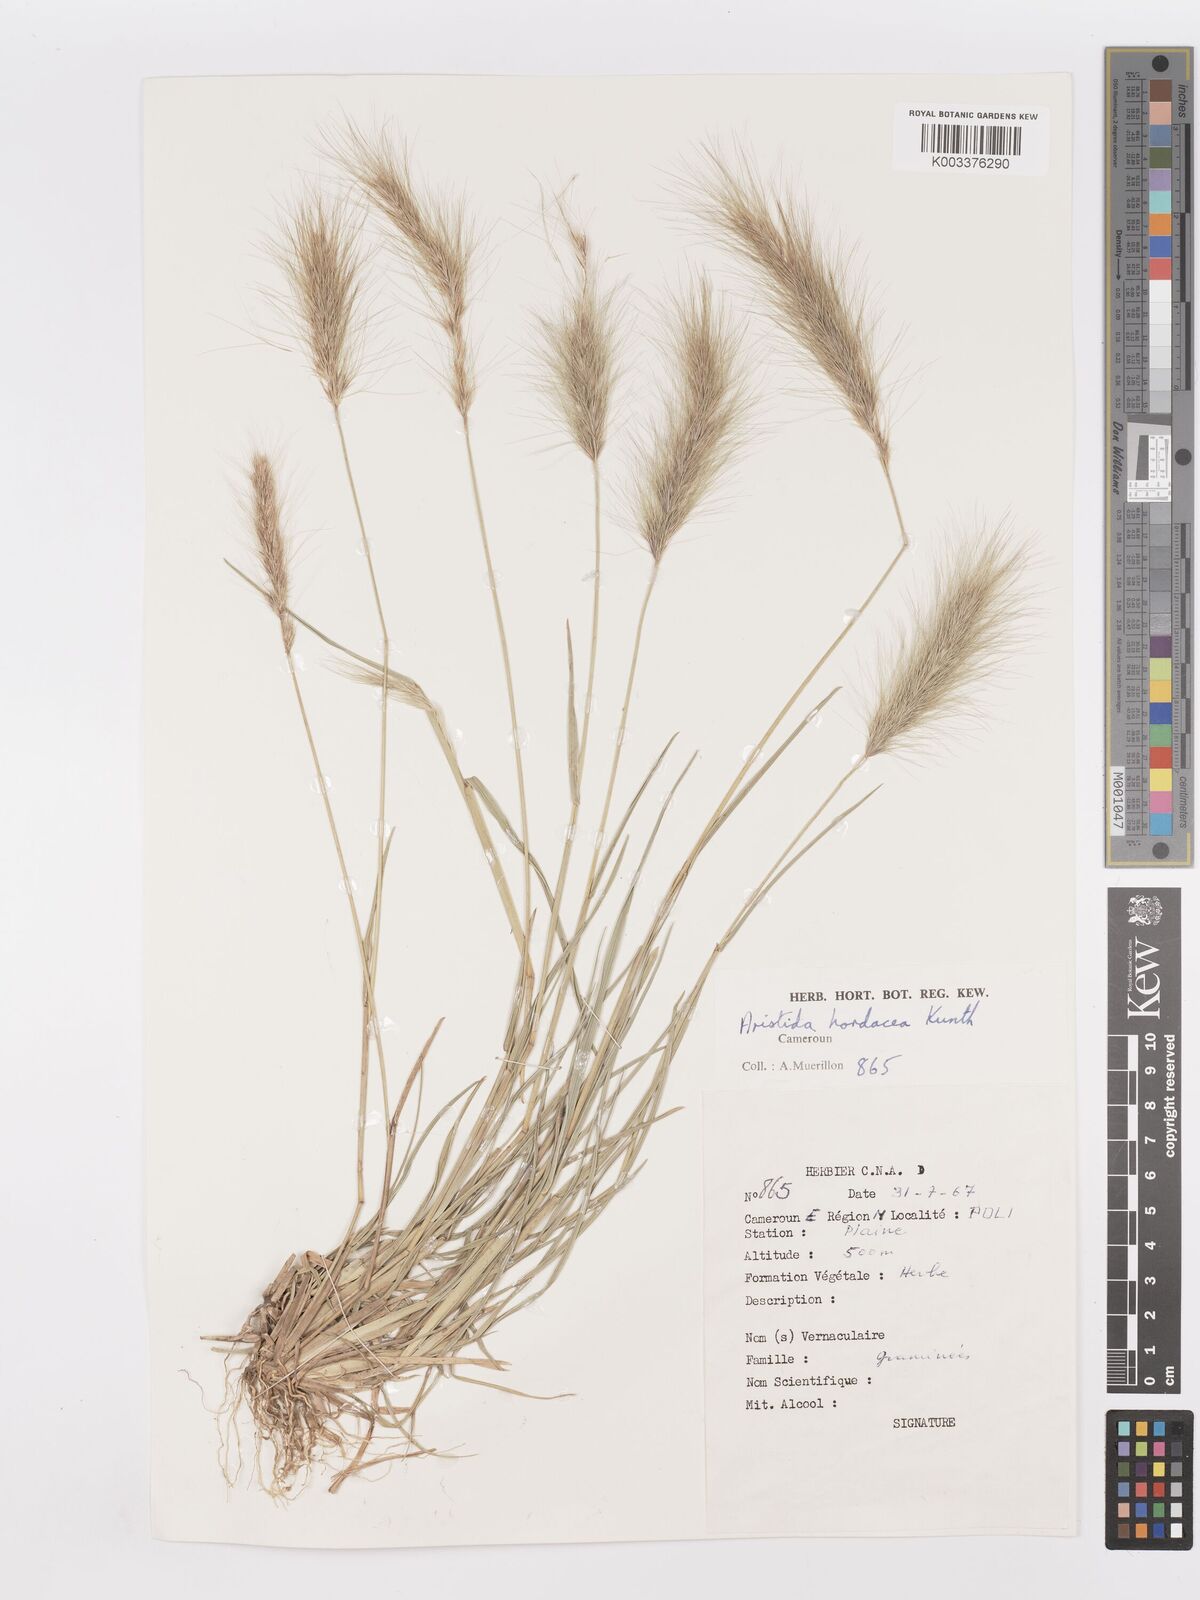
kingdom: Plantae
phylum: Tracheophyta
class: Liliopsida
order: Poales
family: Poaceae
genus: Aristida
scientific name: Aristida hordeacea
